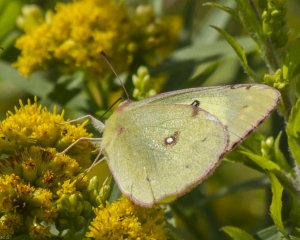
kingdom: Animalia
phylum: Arthropoda
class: Insecta
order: Lepidoptera
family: Pieridae
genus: Colias
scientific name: Colias philodice
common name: Clouded Sulphur
